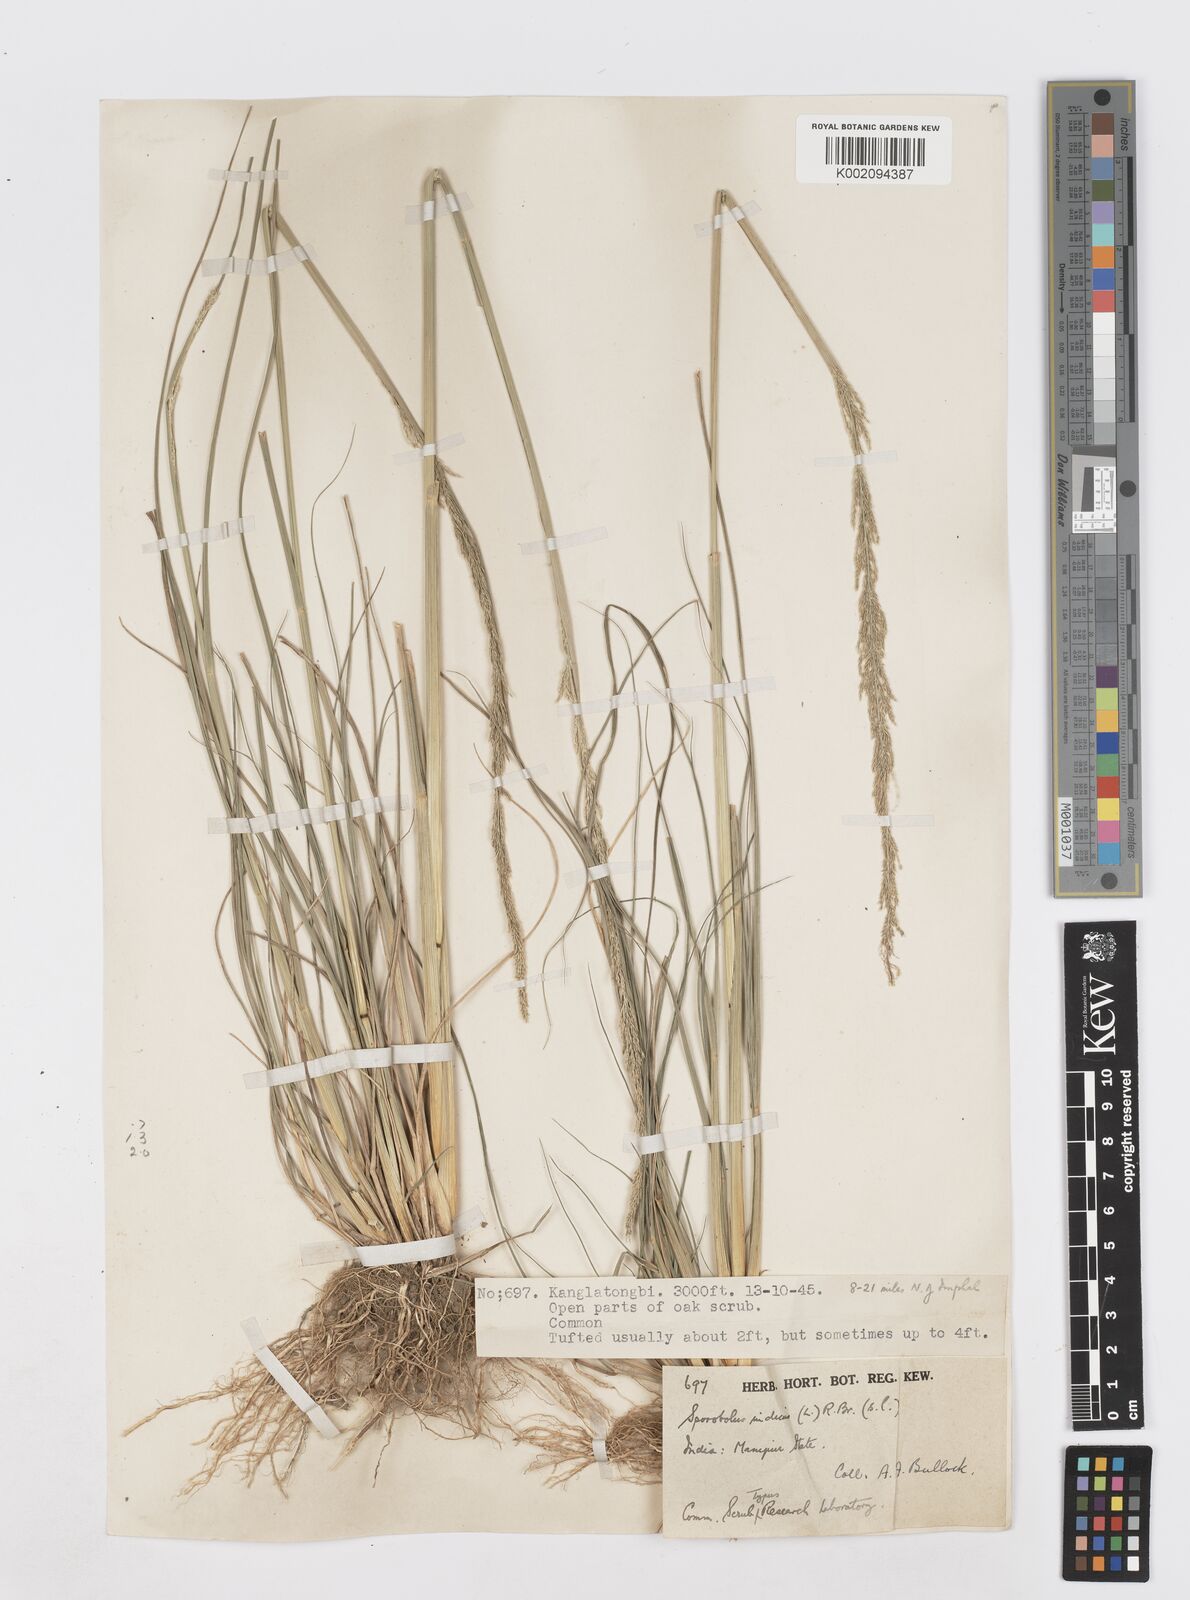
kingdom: Plantae
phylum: Tracheophyta
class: Liliopsida
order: Poales
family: Poaceae
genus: Sporobolus
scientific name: Sporobolus fertilis
